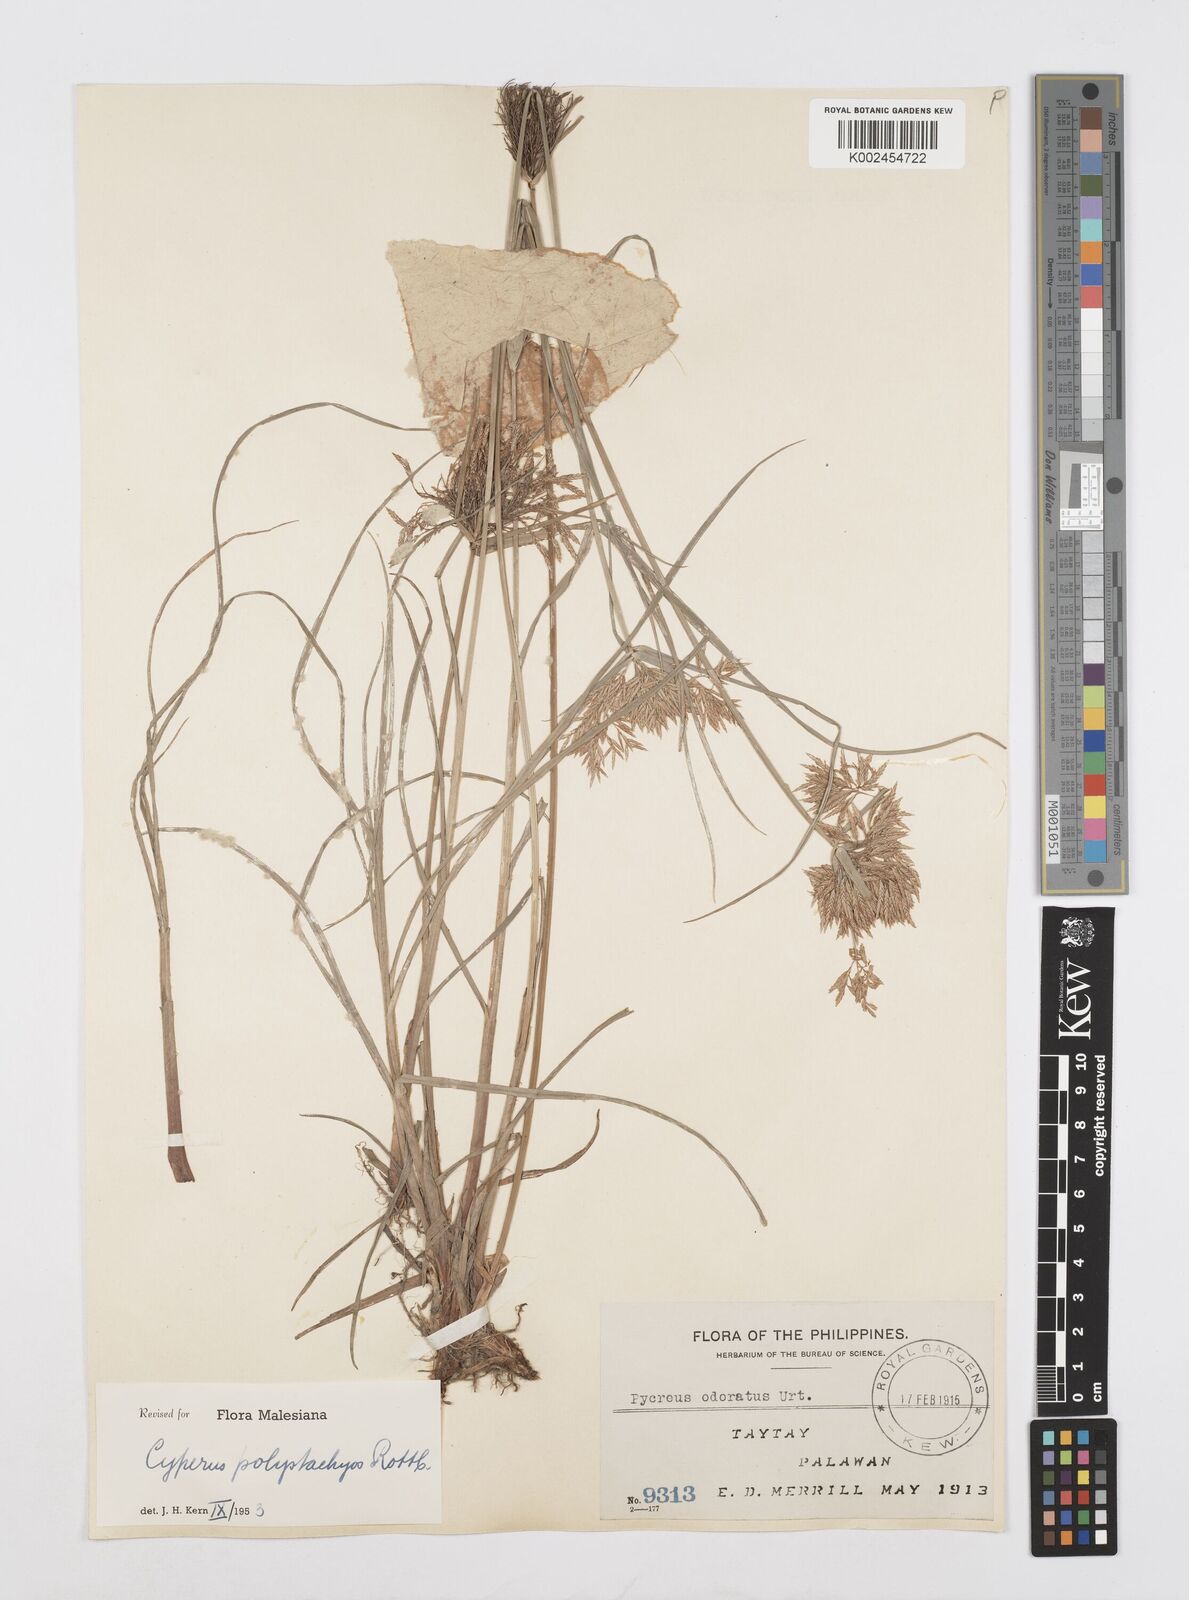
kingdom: Plantae
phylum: Tracheophyta
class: Liliopsida
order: Poales
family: Cyperaceae
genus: Cyperus
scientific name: Cyperus polystachyos
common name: Bunchy flat sedge
